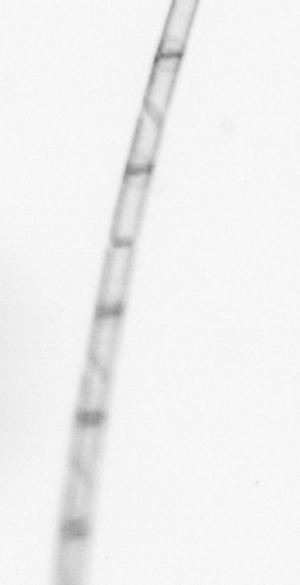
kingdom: Chromista
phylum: Ochrophyta
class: Bacillariophyceae
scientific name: Bacillariophyceae
